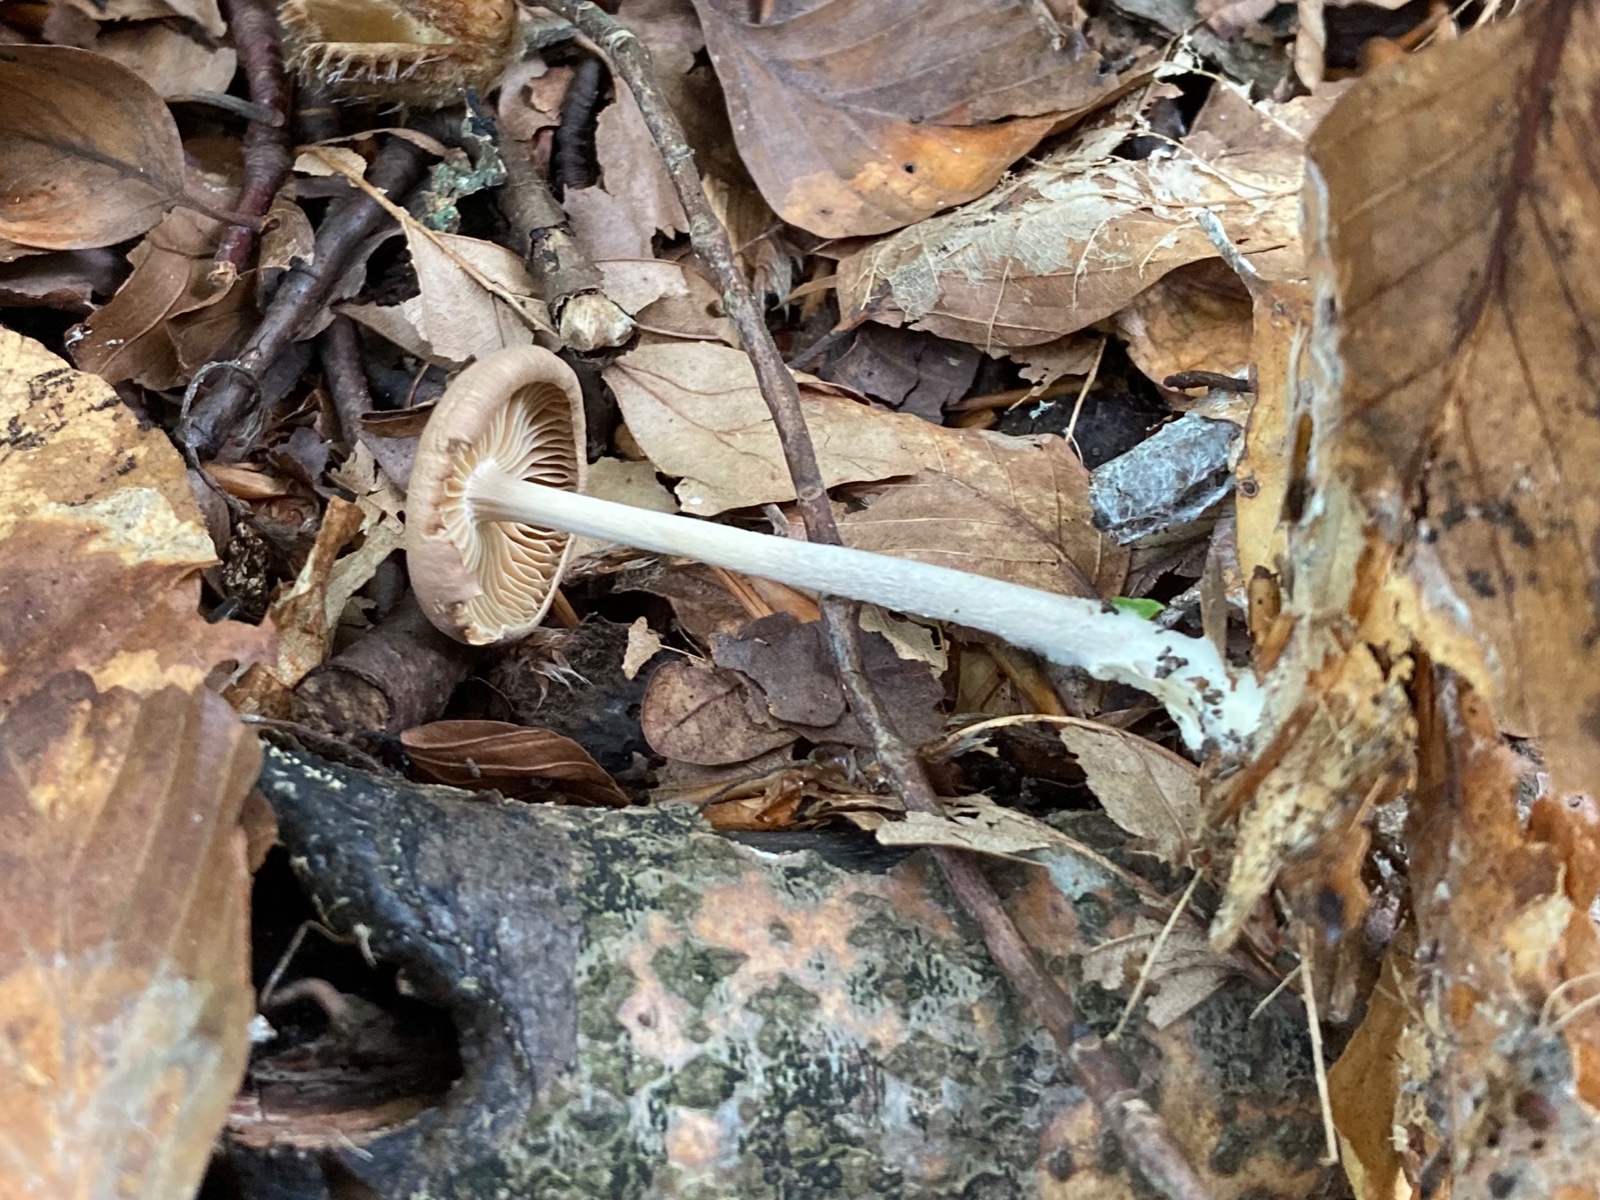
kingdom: Fungi
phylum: Basidiomycota
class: Agaricomycetes
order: Agaricales
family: Omphalotaceae
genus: Collybiopsis
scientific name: Collybiopsis peronata
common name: bestøvlet fladhat
